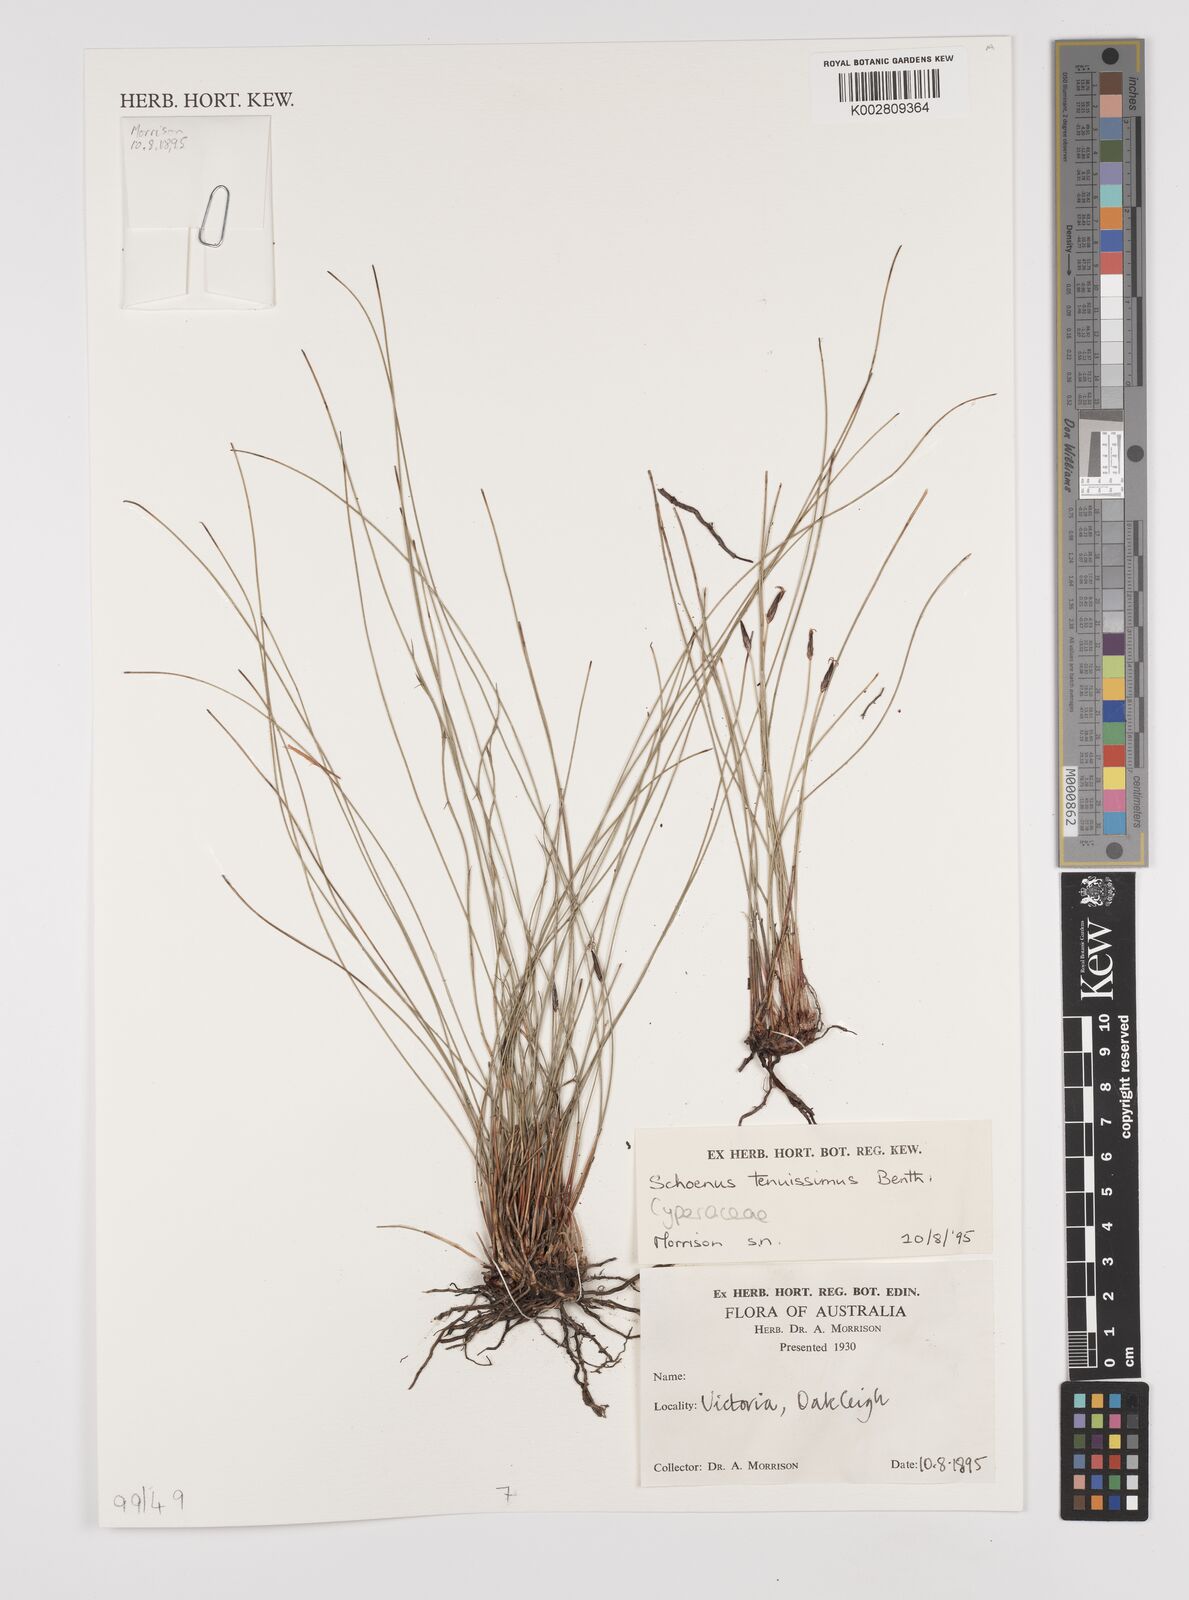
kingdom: Plantae
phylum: Tracheophyta
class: Liliopsida
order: Poales
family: Cyperaceae
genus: Schoenus
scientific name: Schoenus tenuissimus
